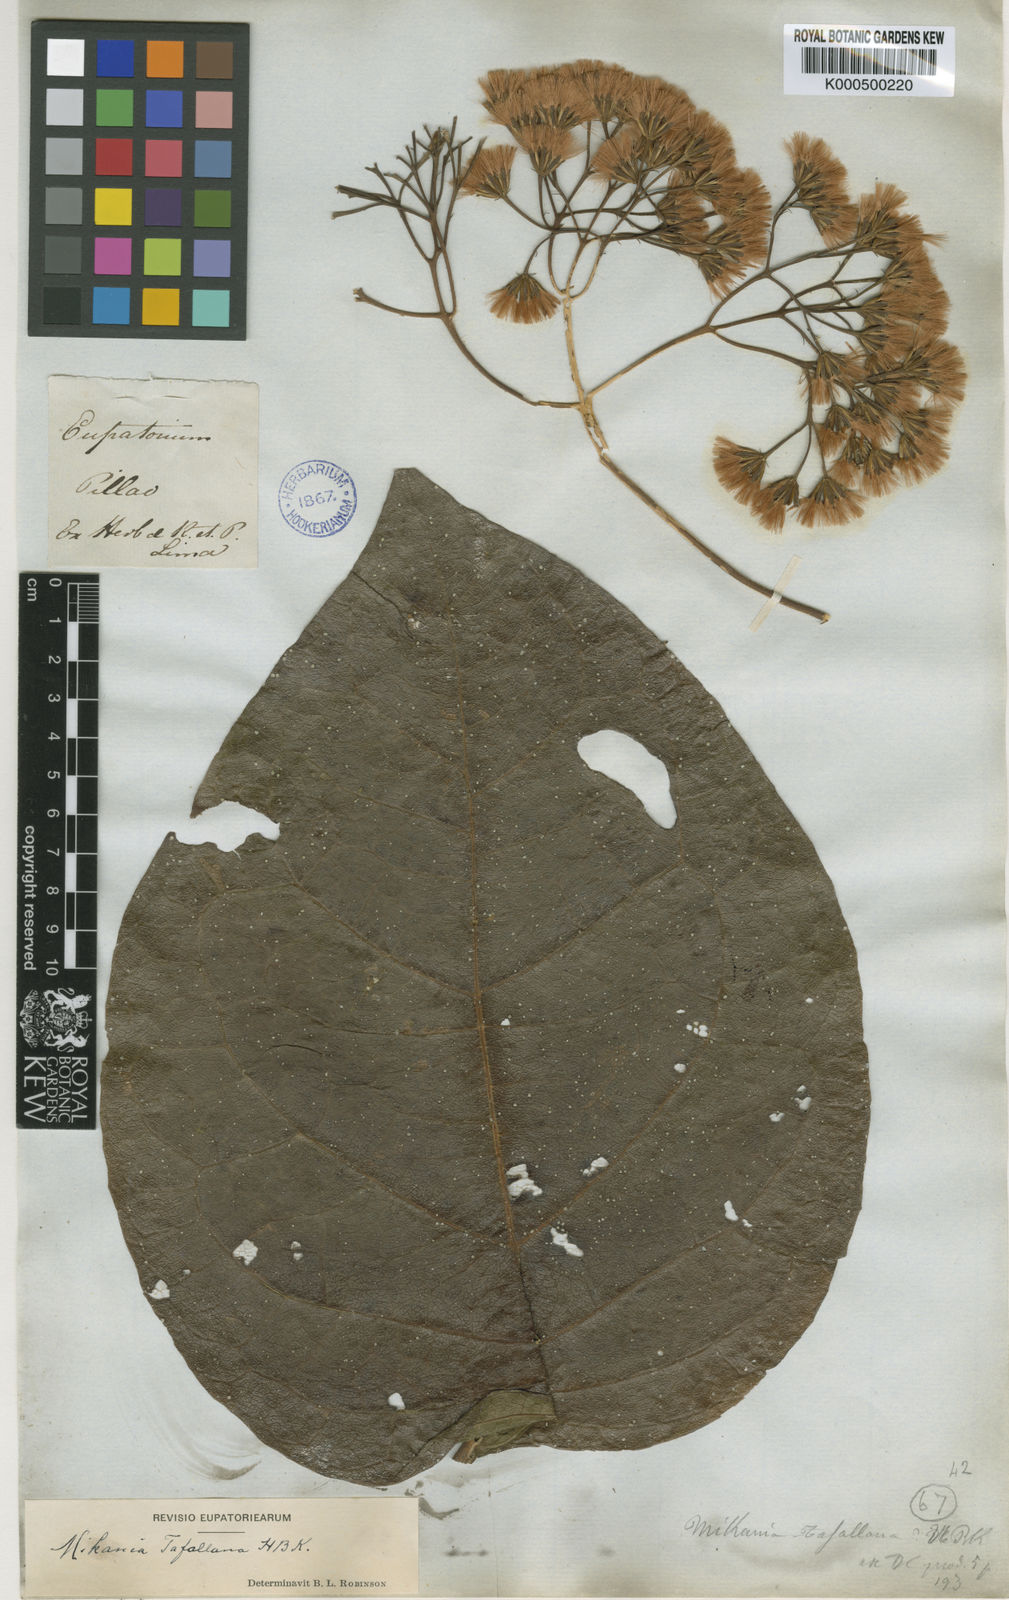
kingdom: Plantae
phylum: Tracheophyta
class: Magnoliopsida
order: Asterales
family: Asteraceae
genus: Mikania
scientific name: Mikania tafallana
